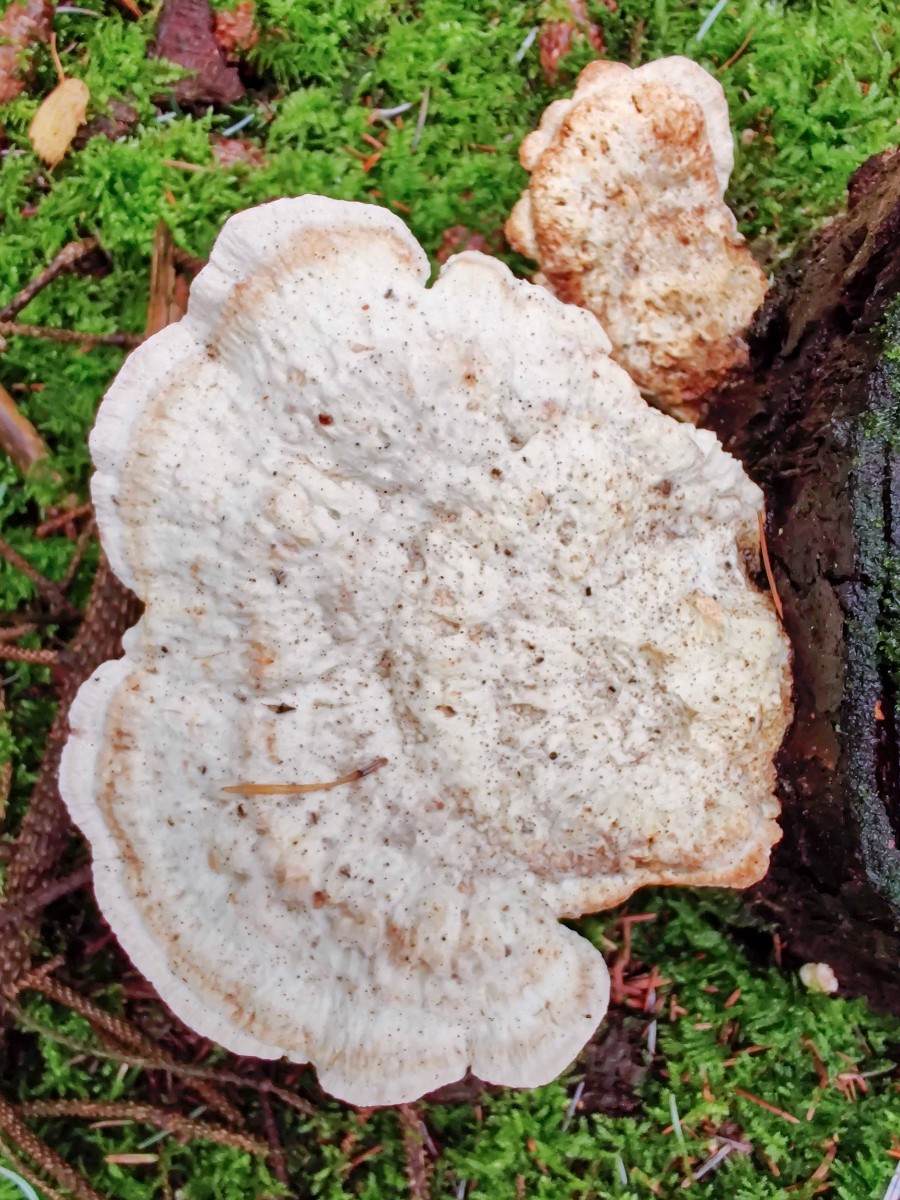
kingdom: Fungi
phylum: Basidiomycota
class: Agaricomycetes
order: Polyporales
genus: Calcipostia
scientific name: Calcipostia guttulata
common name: dråbe-kødporesvamp
